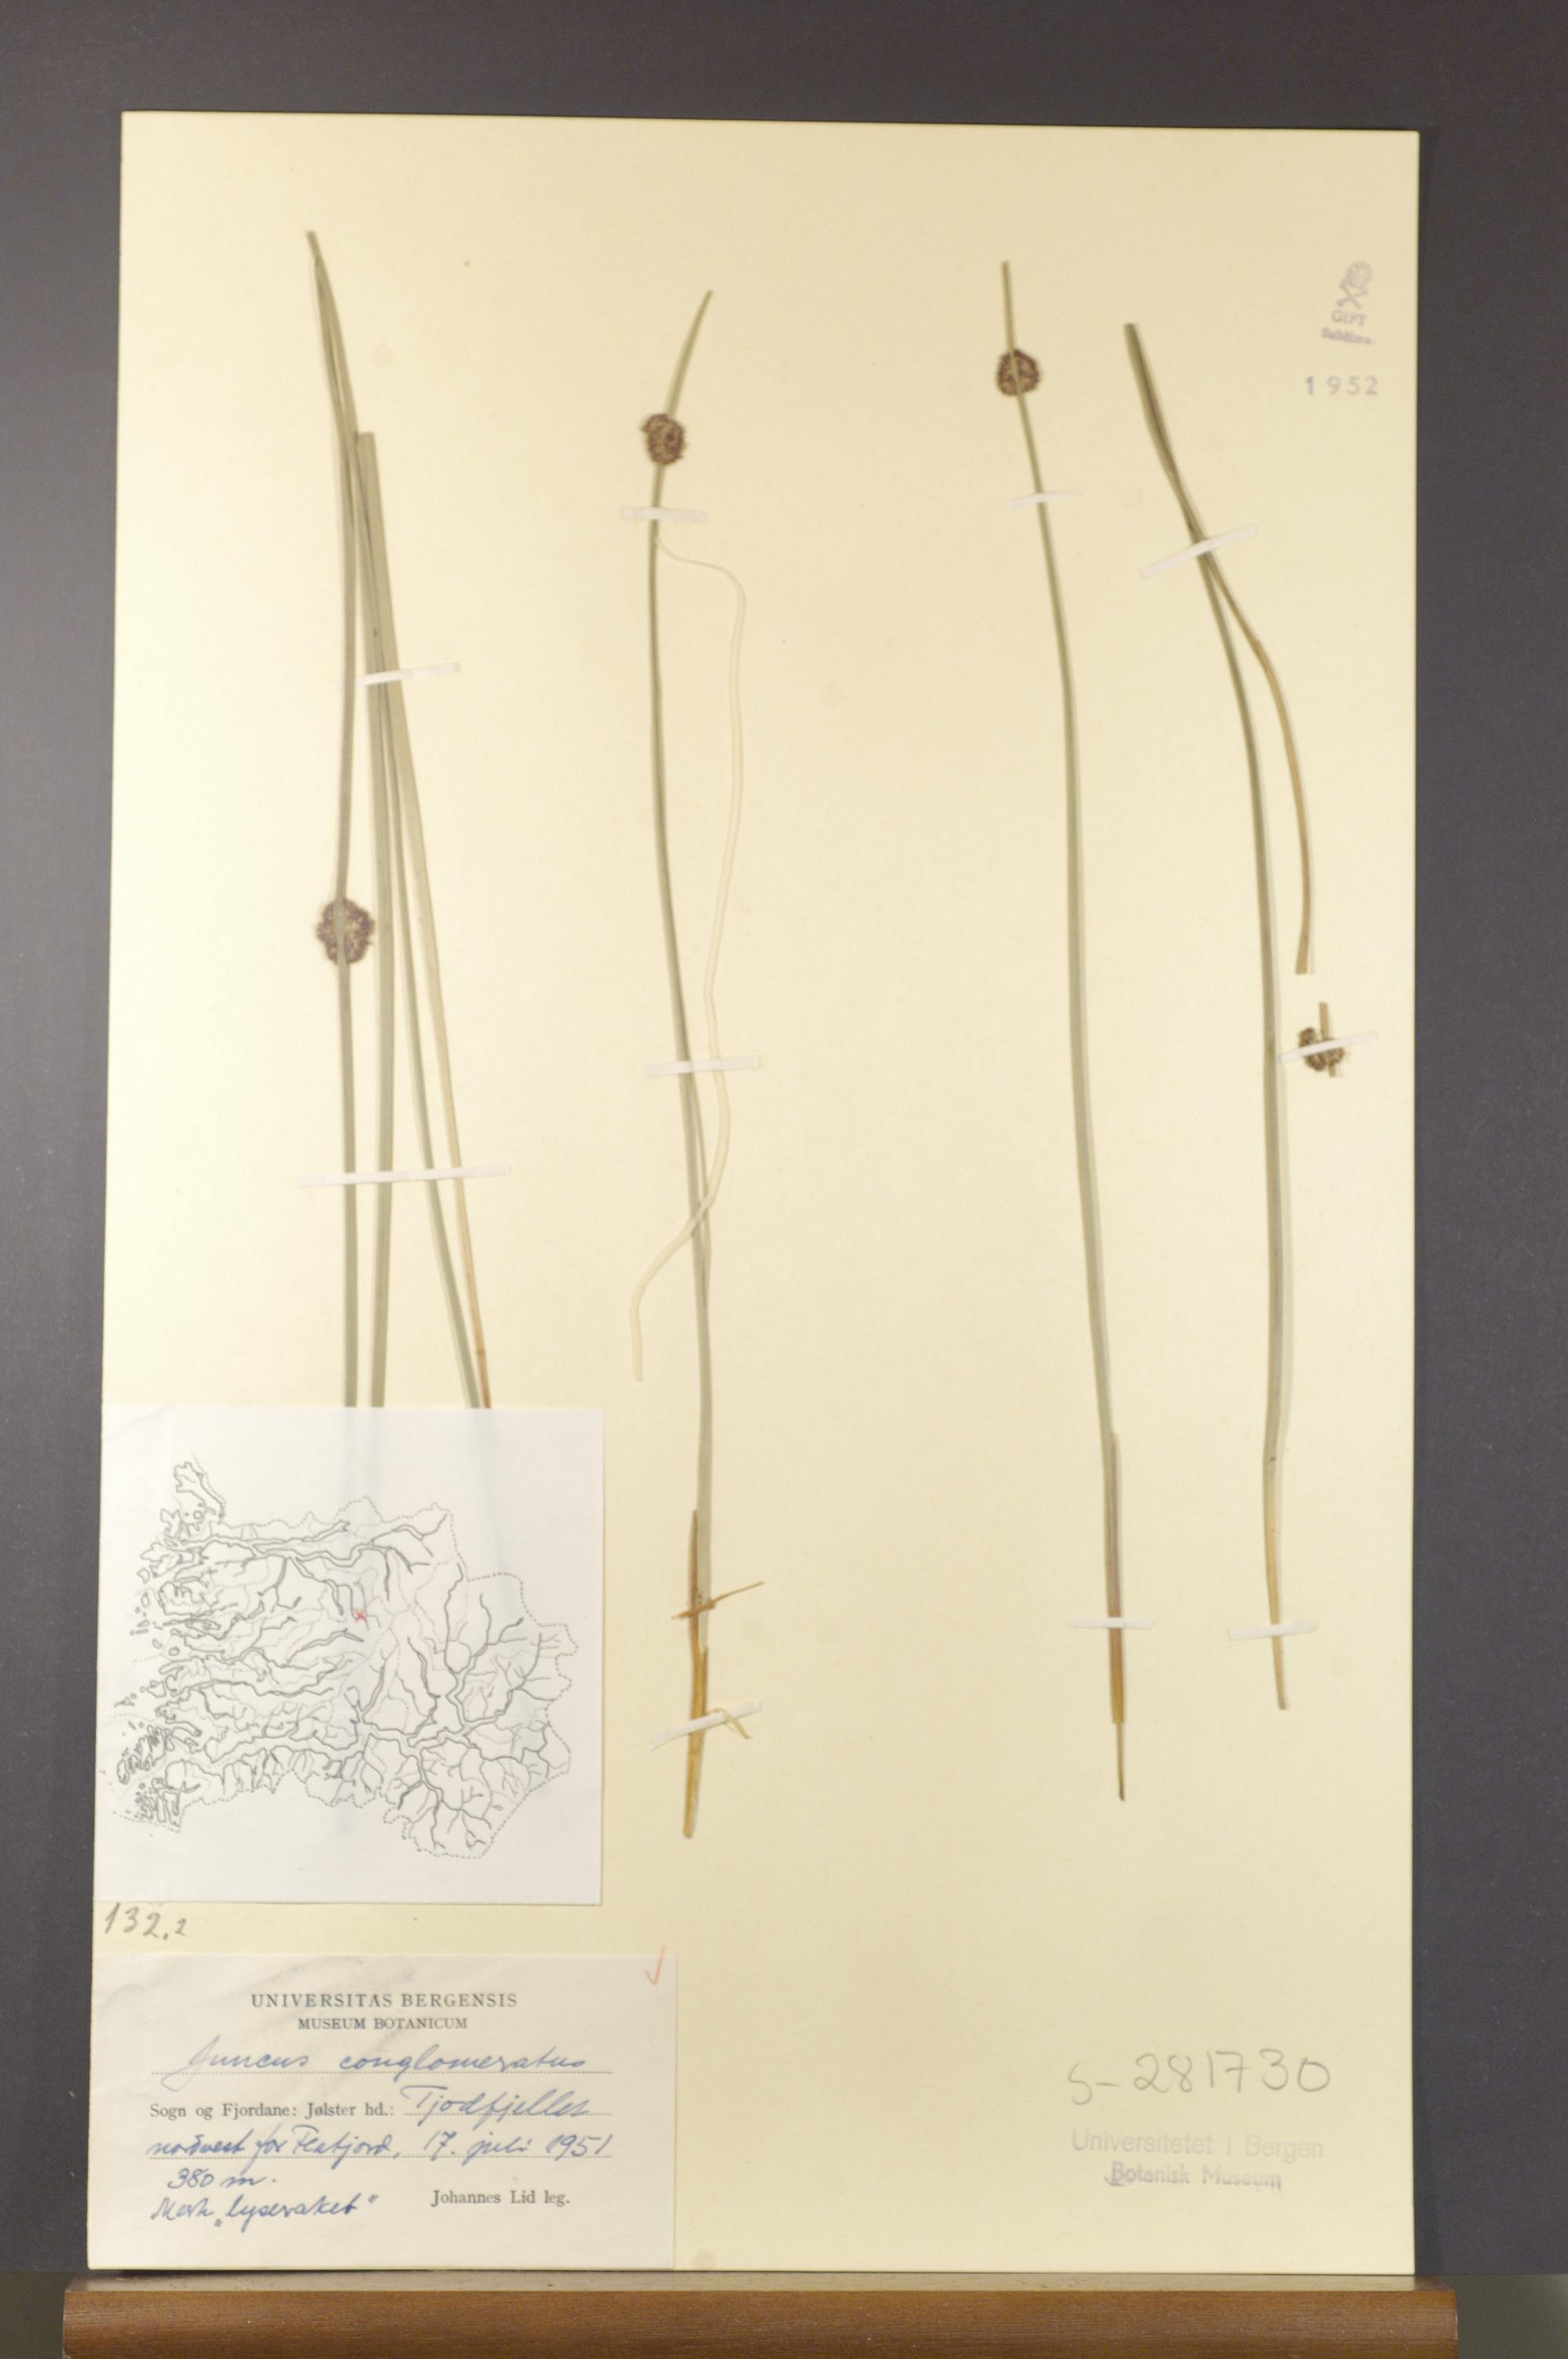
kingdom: Plantae
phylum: Tracheophyta
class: Liliopsida
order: Poales
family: Juncaceae
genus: Juncus
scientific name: Juncus conglomeratus
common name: Compact rush
